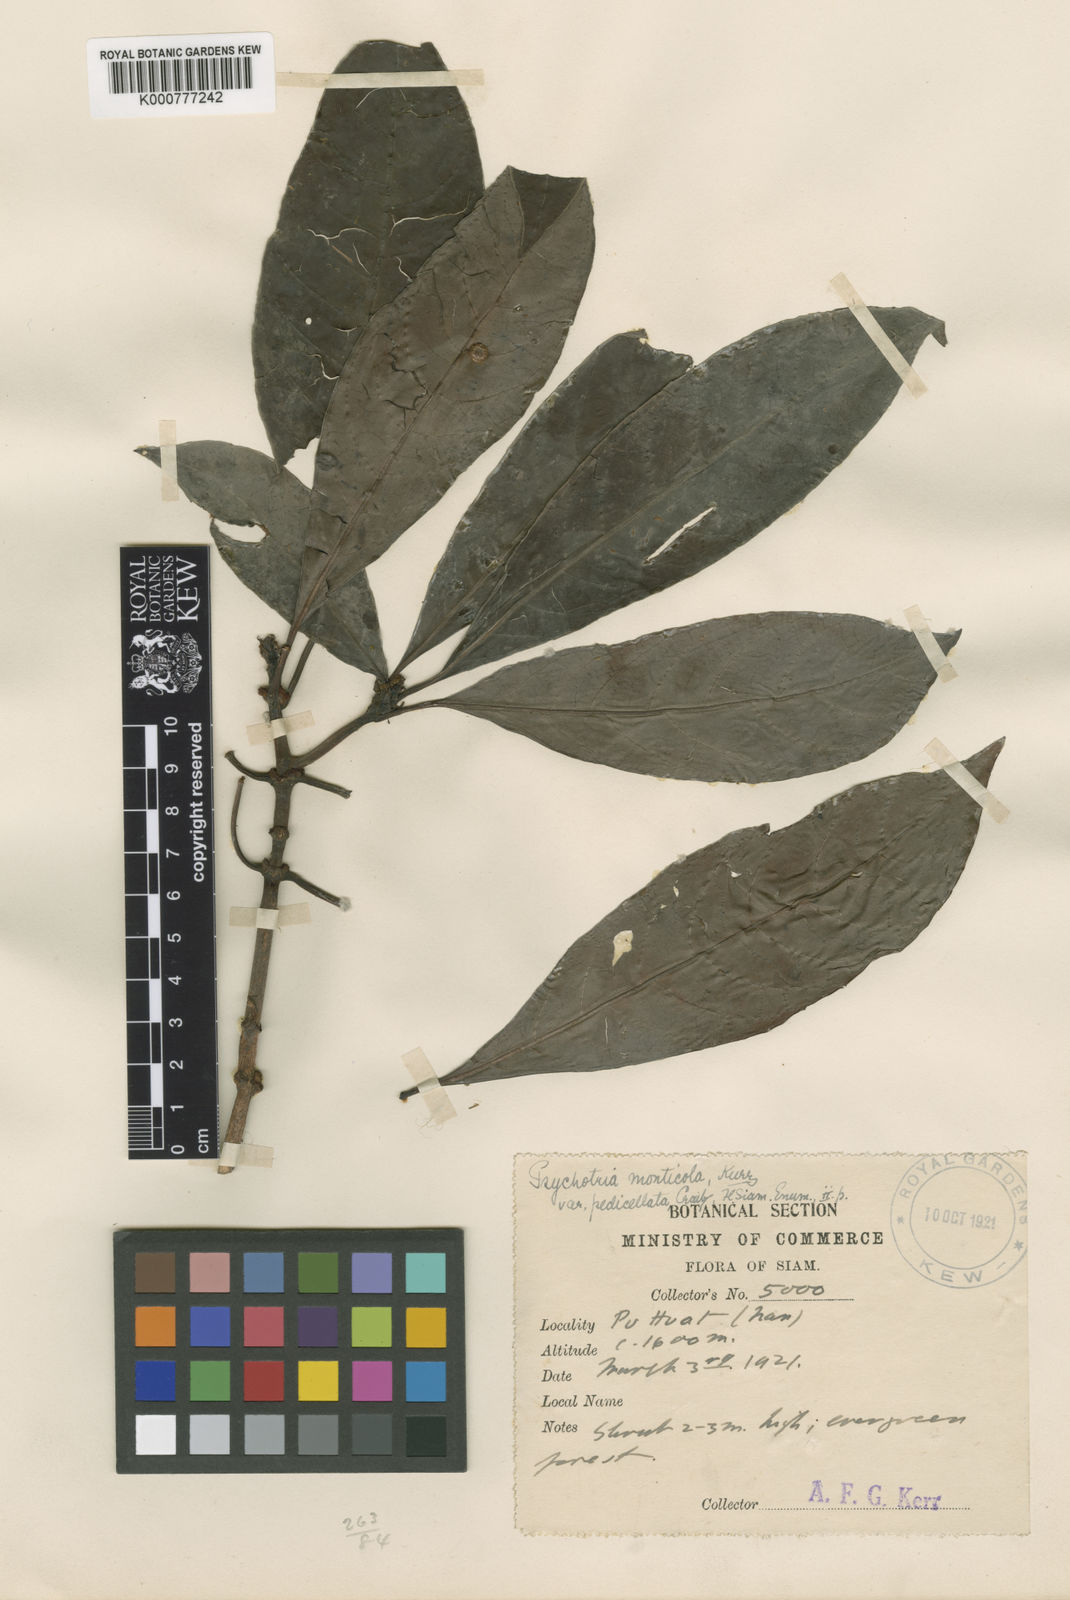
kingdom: Plantae
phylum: Tracheophyta
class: Magnoliopsida
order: Gentianales
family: Rubiaceae
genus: Psychotria
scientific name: Psychotria yunnanensis
